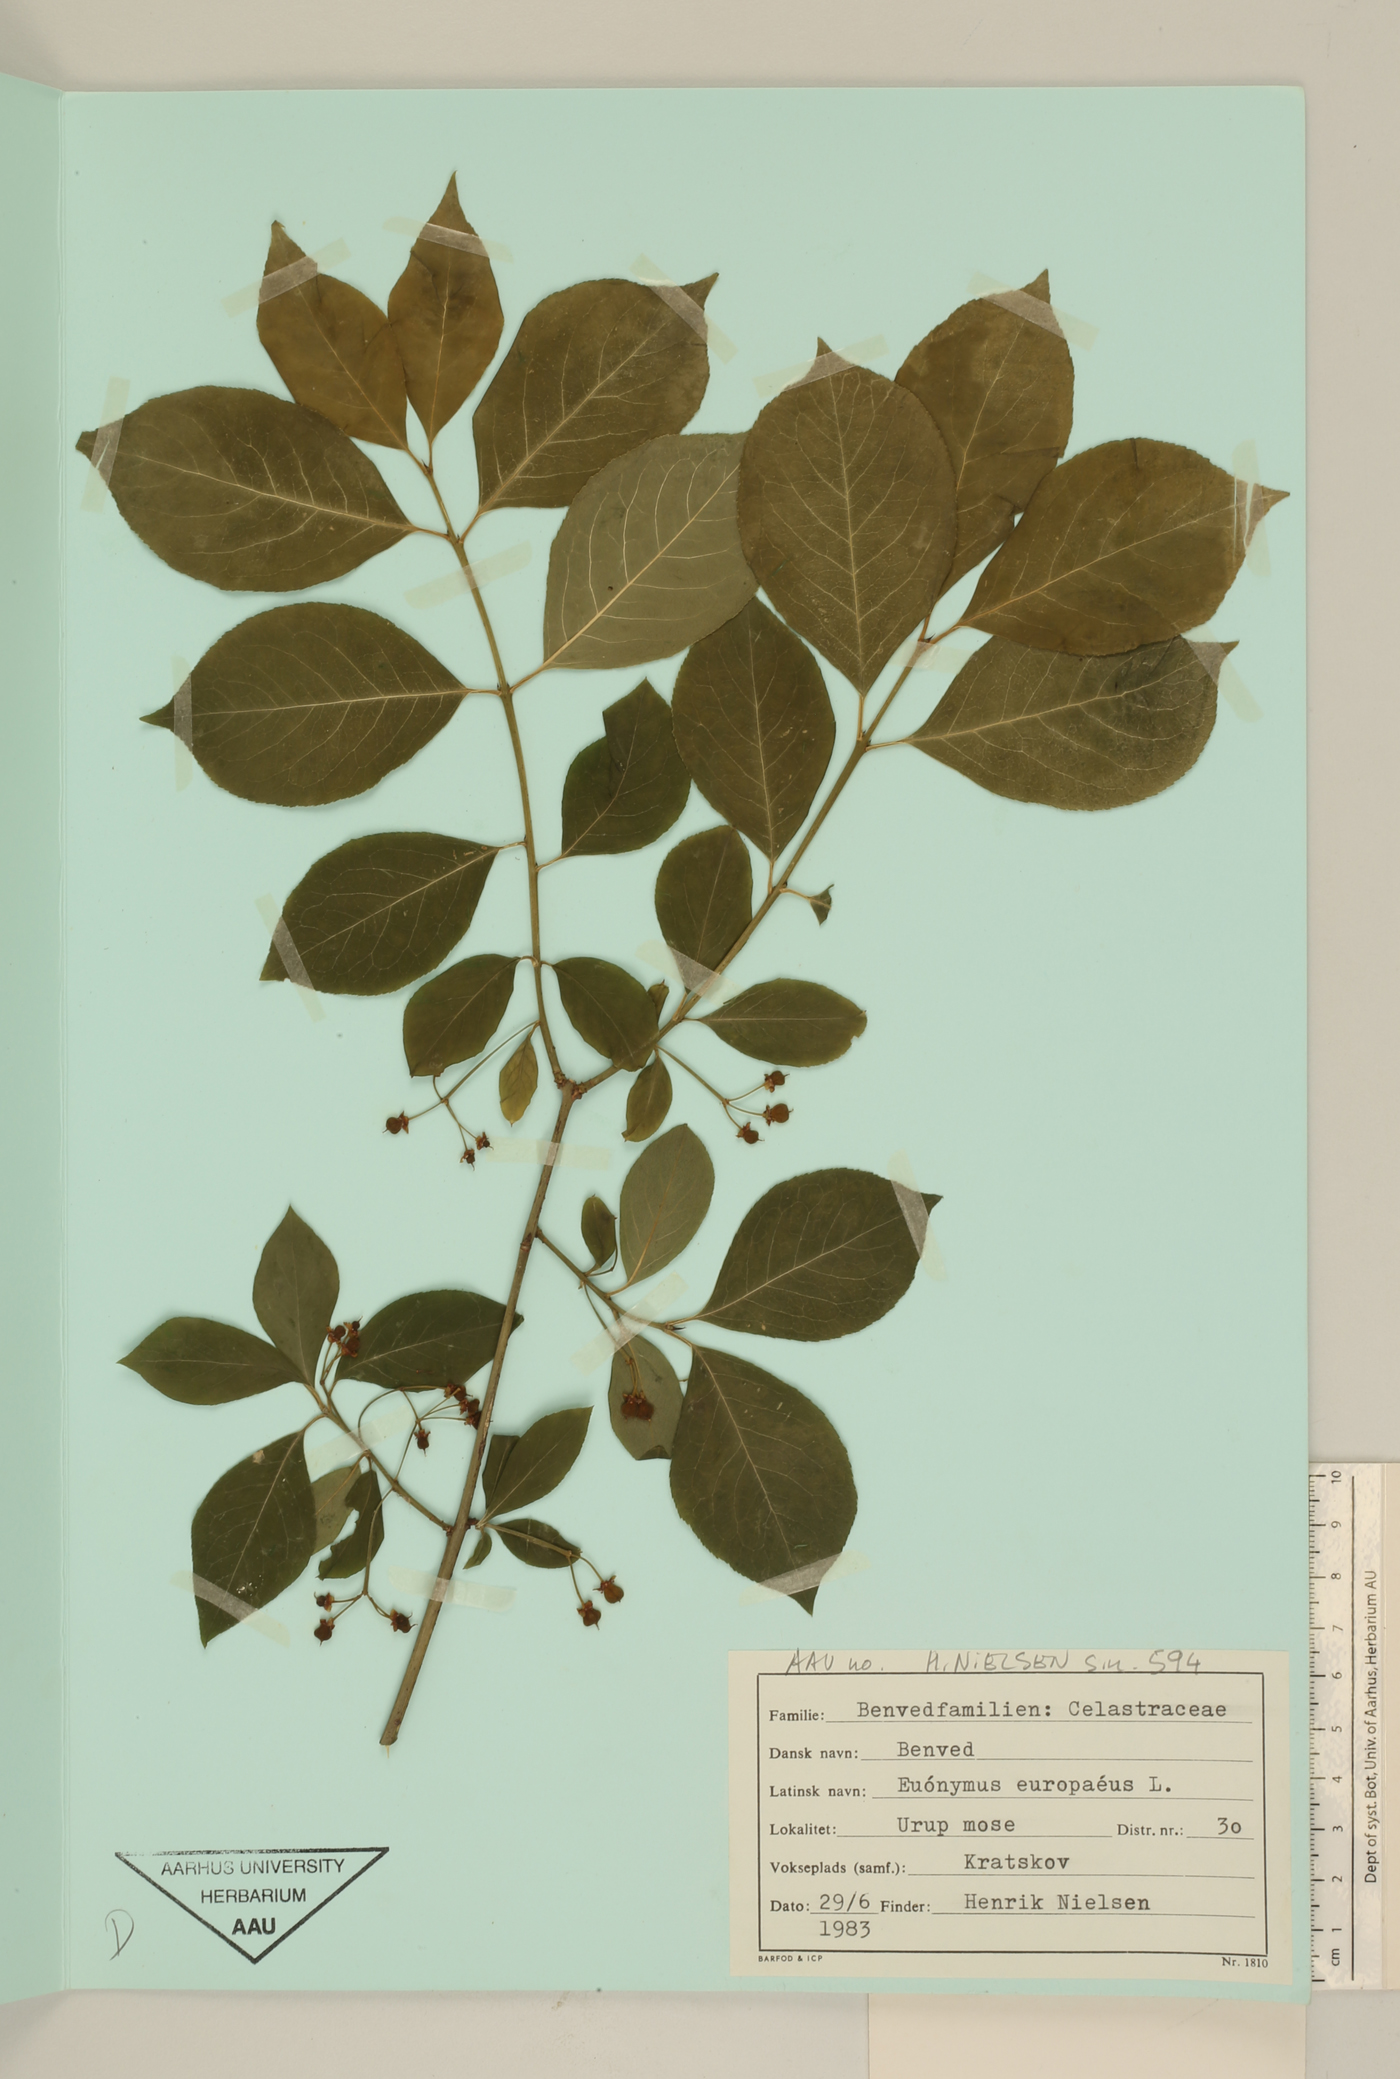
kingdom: Plantae
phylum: Tracheophyta
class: Magnoliopsida
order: Celastrales
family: Celastraceae
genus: Euonymus
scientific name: Euonymus europaeus
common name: Spindle
